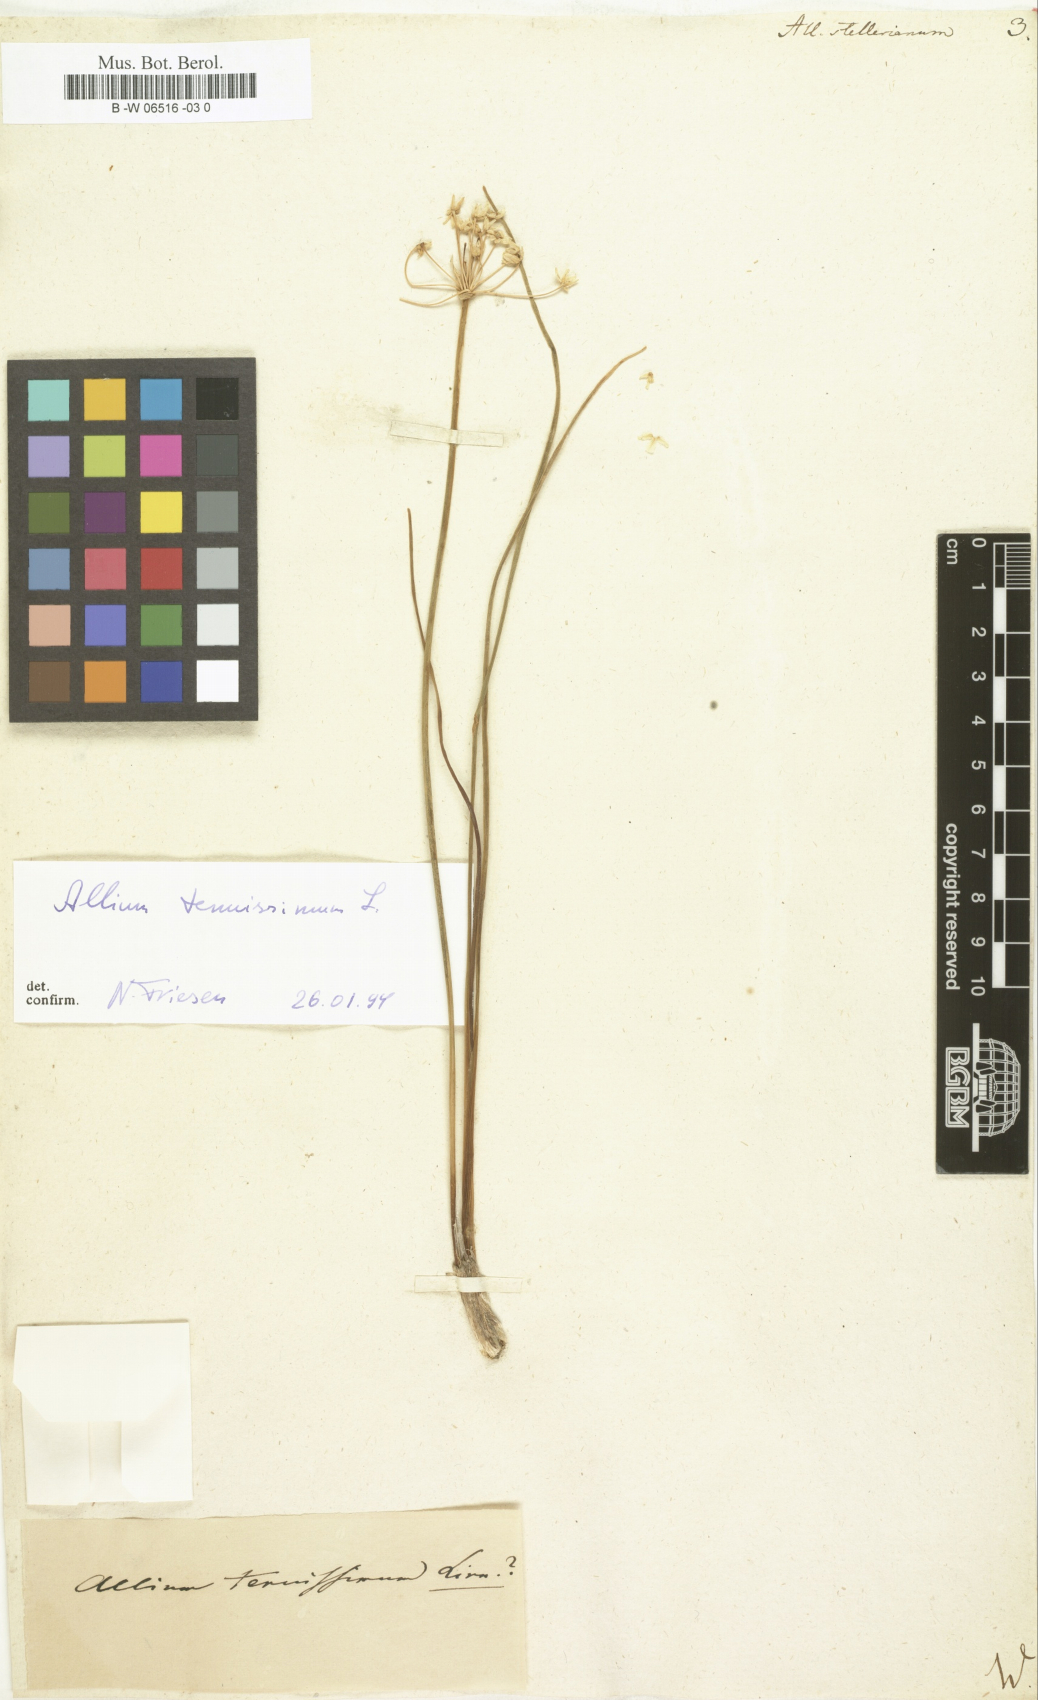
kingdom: Plantae
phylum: Tracheophyta
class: Liliopsida
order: Asparagales
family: Amaryllidaceae
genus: Allium
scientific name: Allium stellerianum
